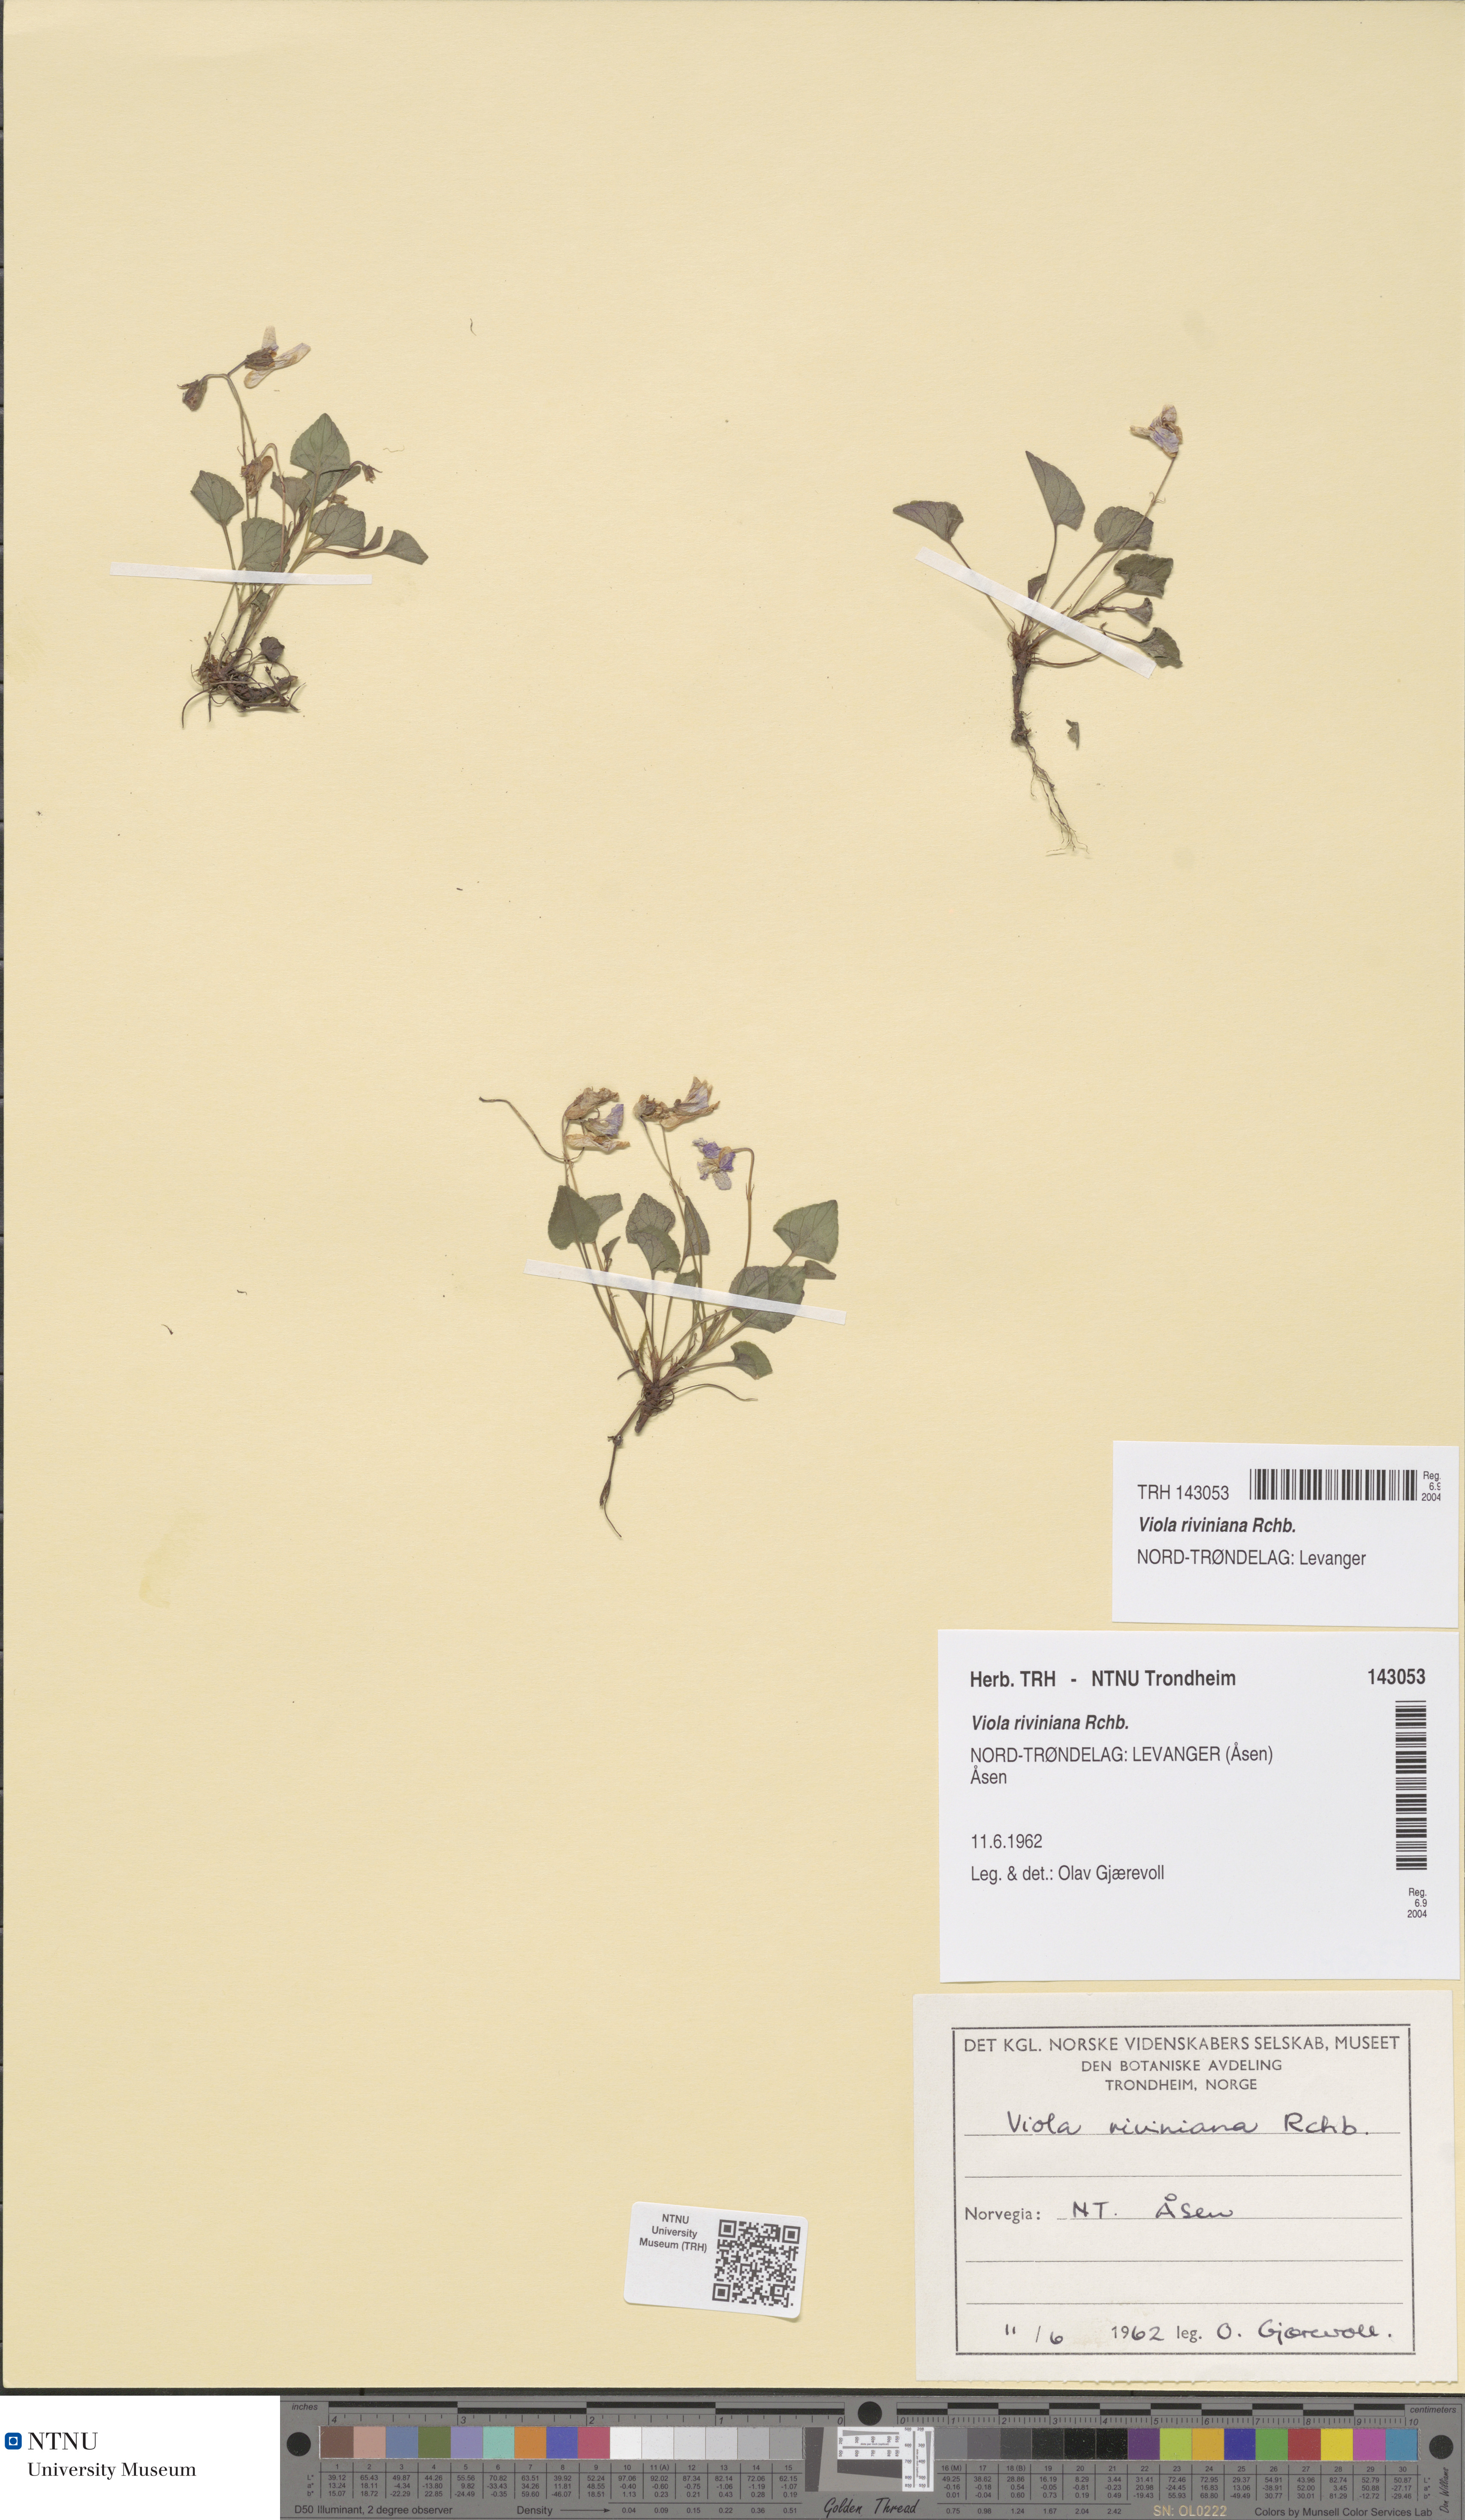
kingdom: Plantae
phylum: Tracheophyta
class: Magnoliopsida
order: Malpighiales
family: Violaceae
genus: Viola
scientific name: Viola riviniana
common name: Common dog-violet
